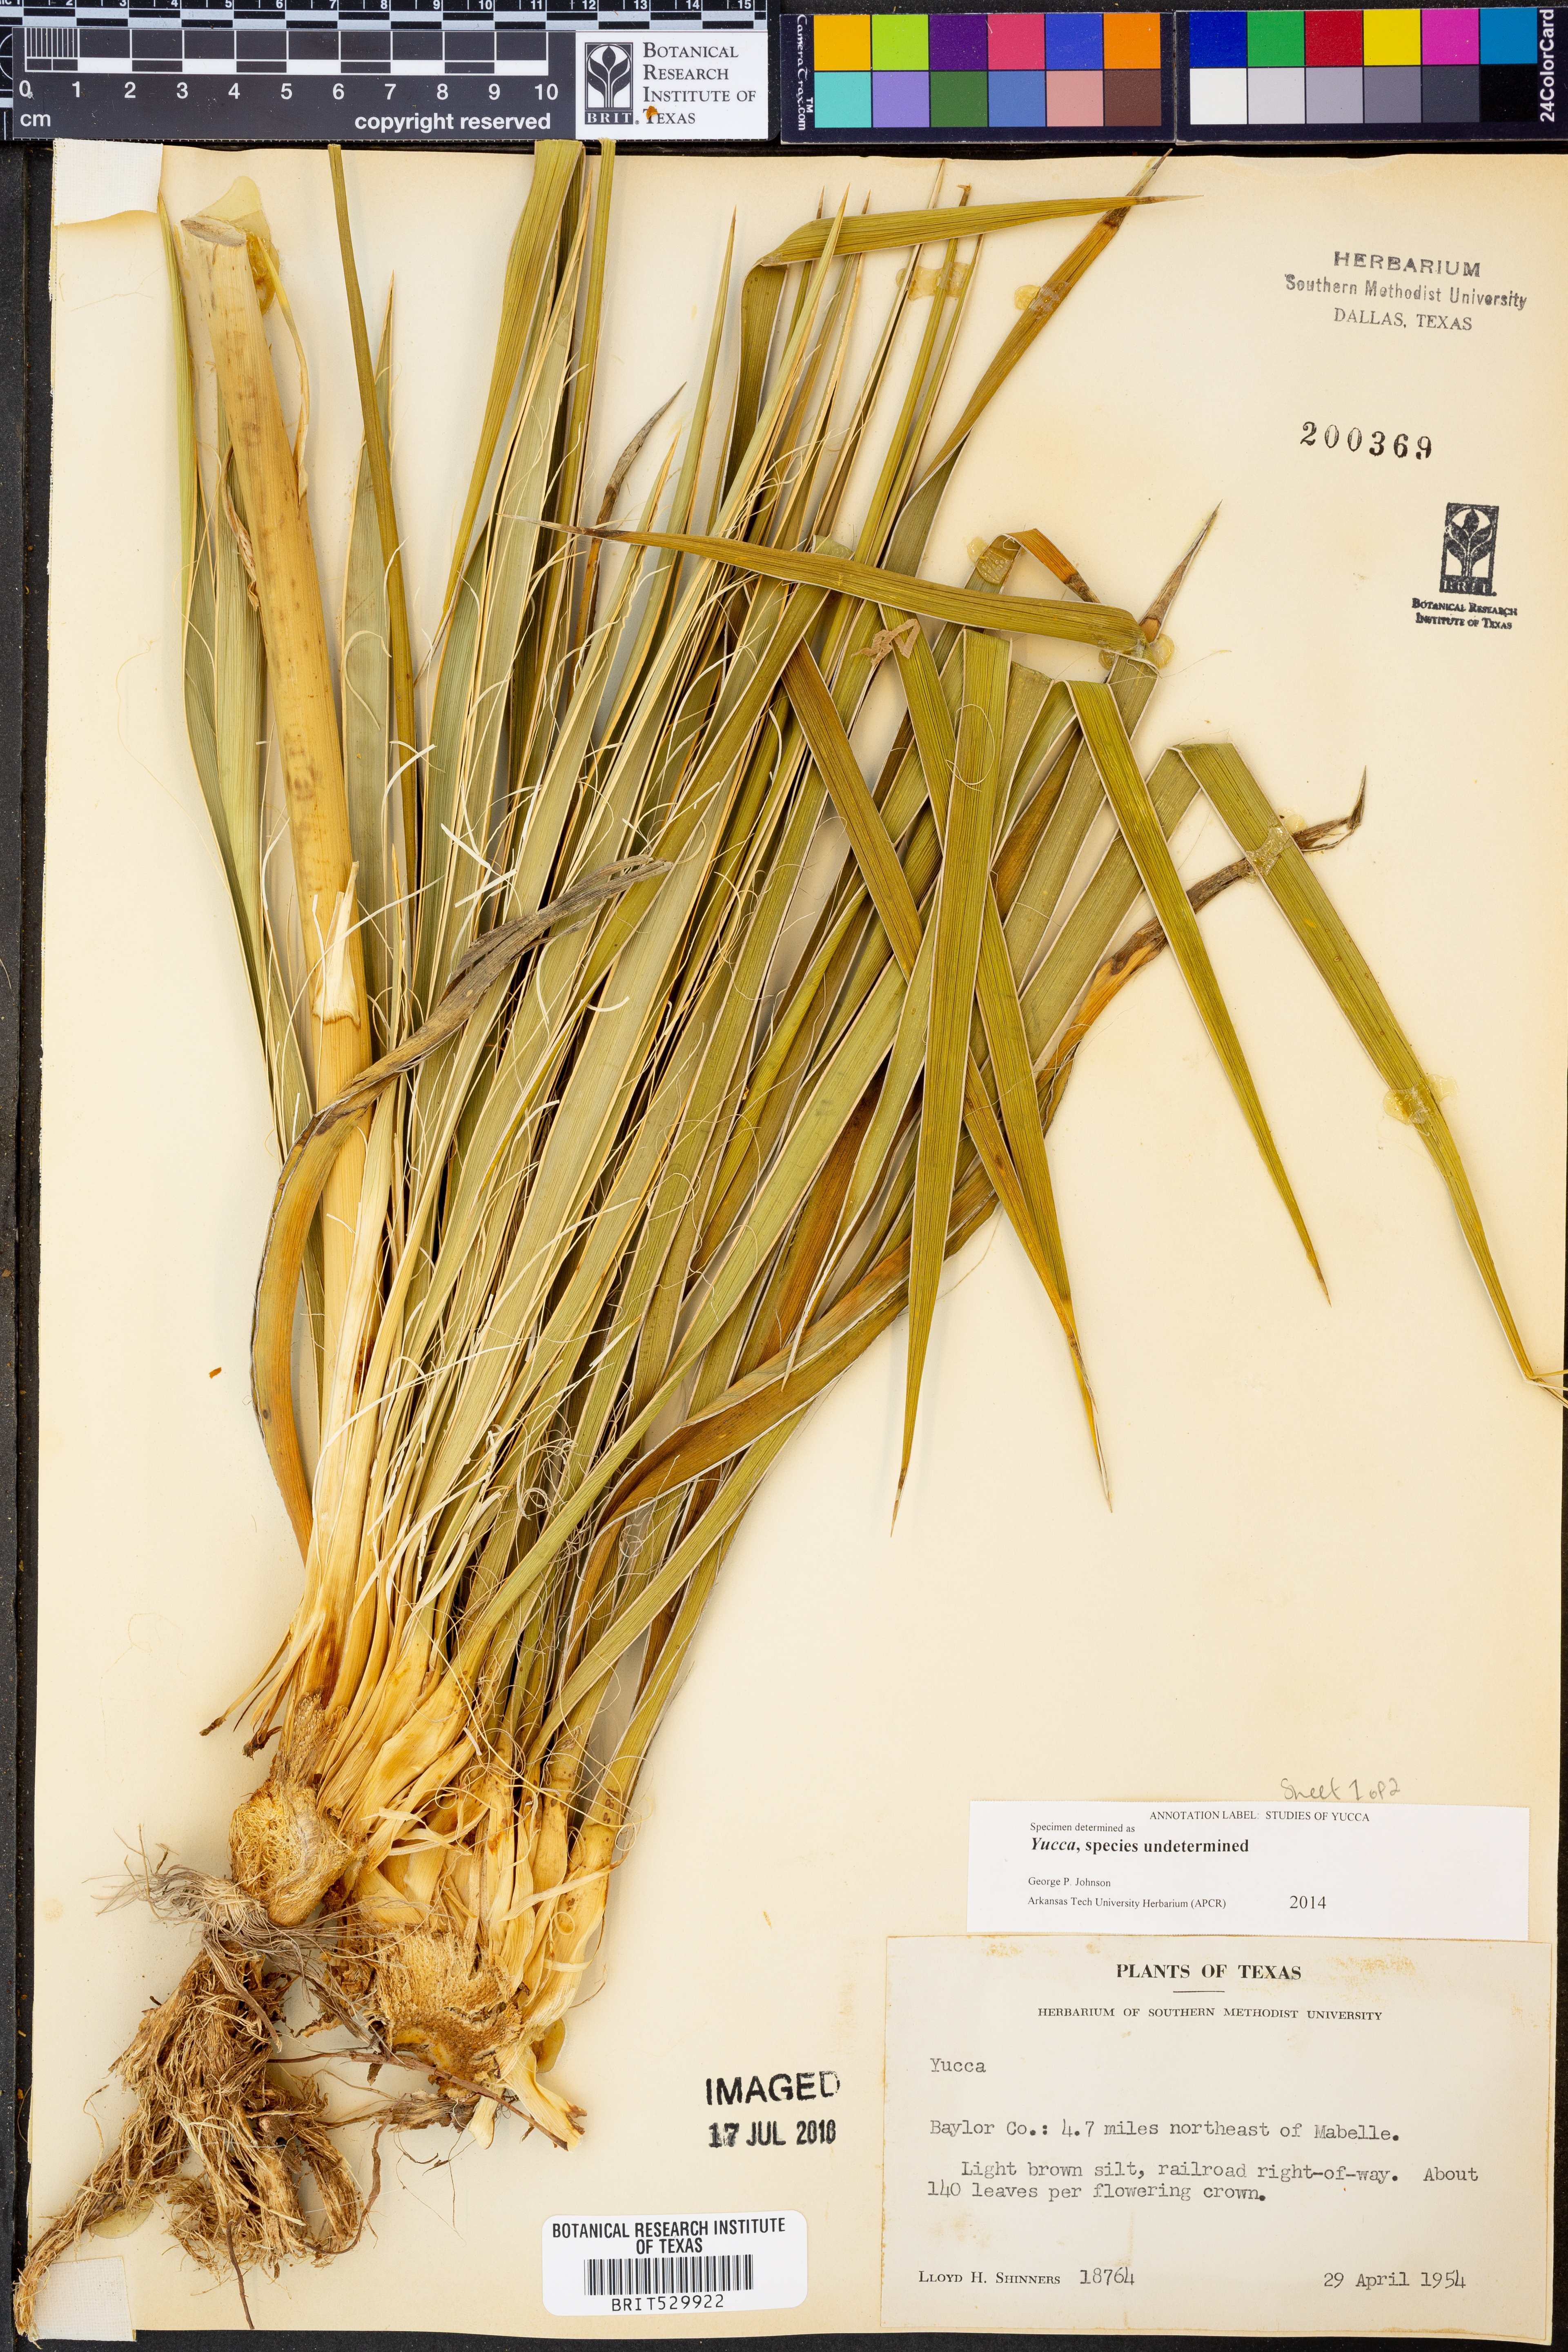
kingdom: Plantae
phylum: Tracheophyta
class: Liliopsida
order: Asparagales
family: Asparagaceae
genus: Yucca
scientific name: Yucca
